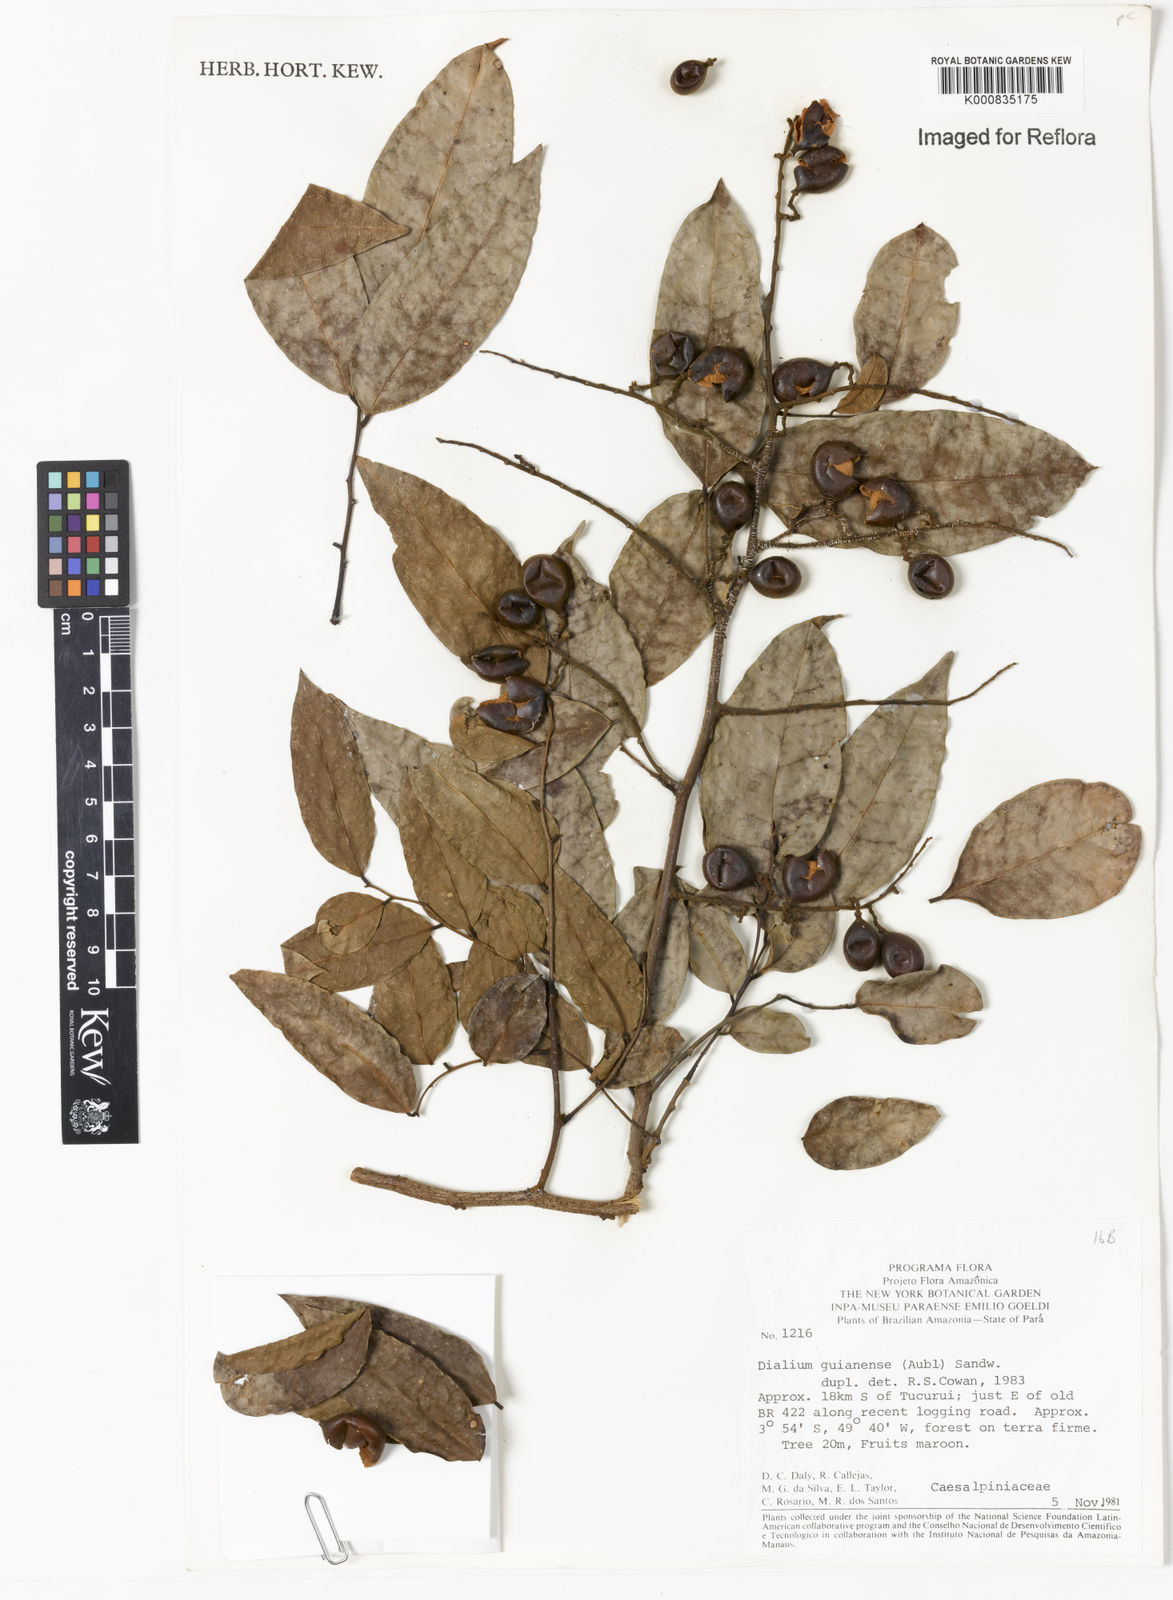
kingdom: Plantae
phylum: Tracheophyta
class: Magnoliopsida
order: Fabales
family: Fabaceae
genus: Dialium
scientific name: Dialium guianense
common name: Ironwood
